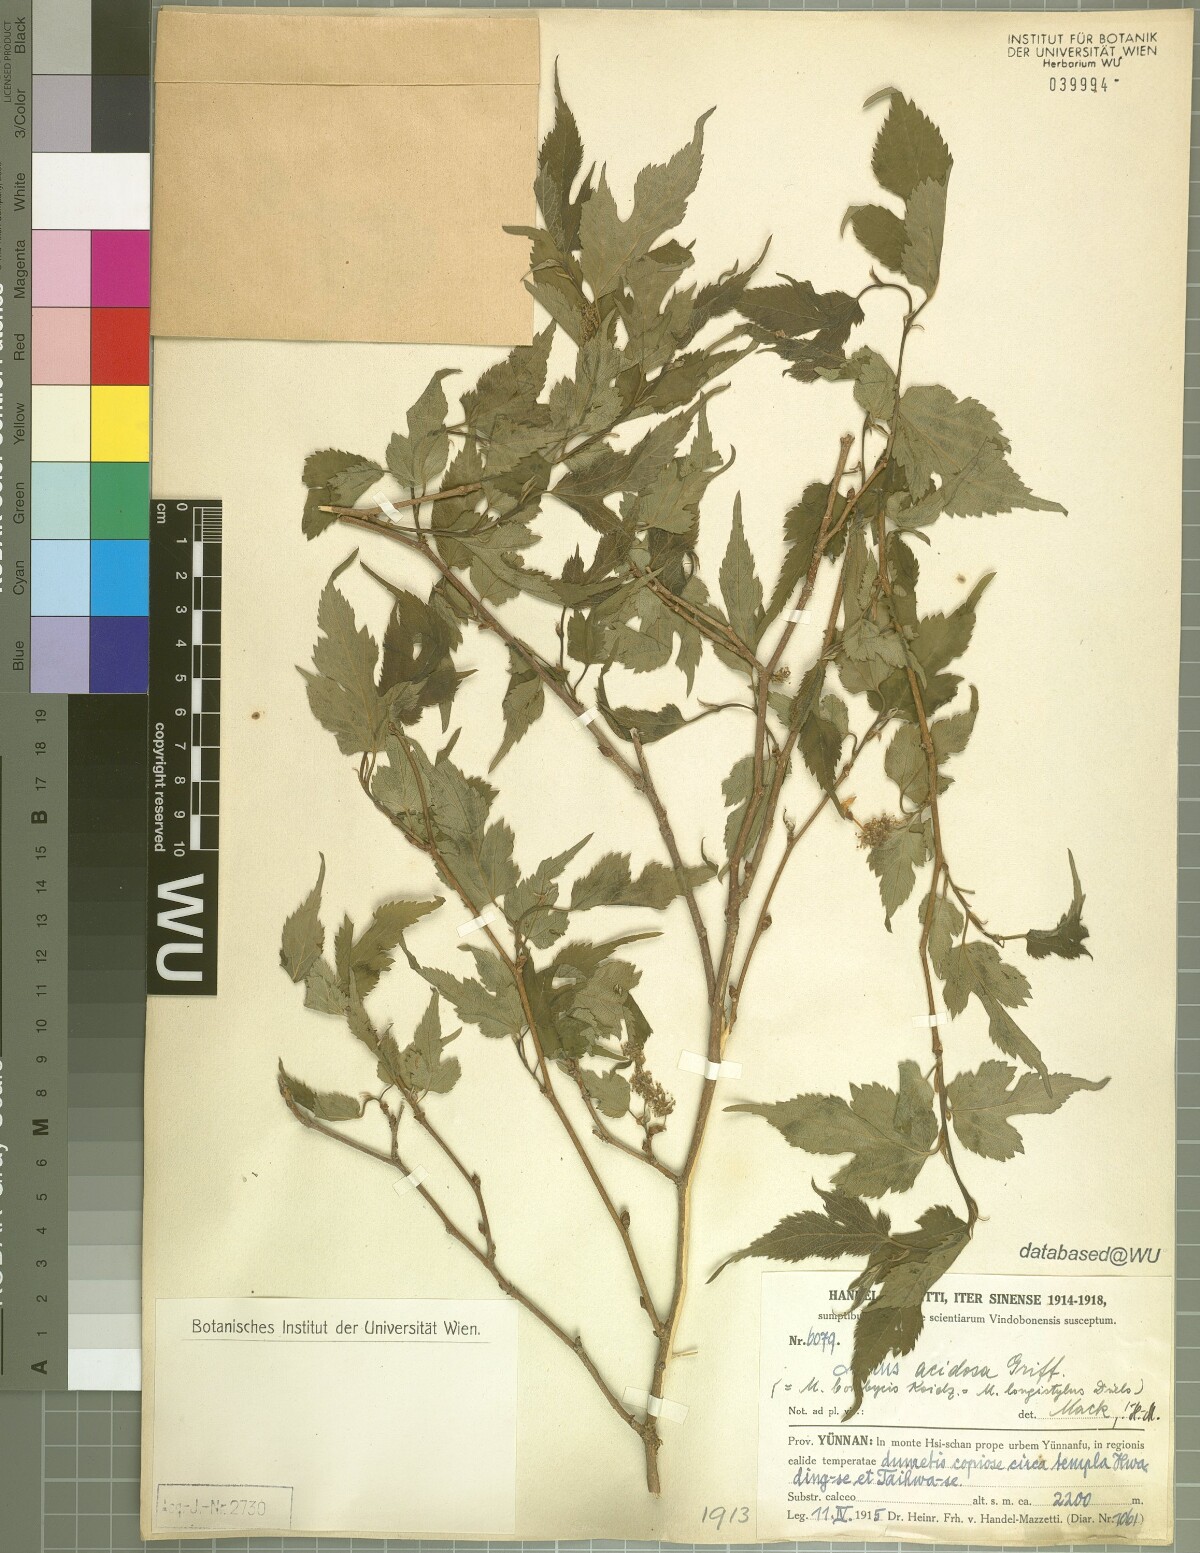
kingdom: Plantae
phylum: Tracheophyta
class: Magnoliopsida
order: Rosales
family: Moraceae
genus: Broussonetia
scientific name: Broussonetia papyrifera
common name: Paper mulberry
